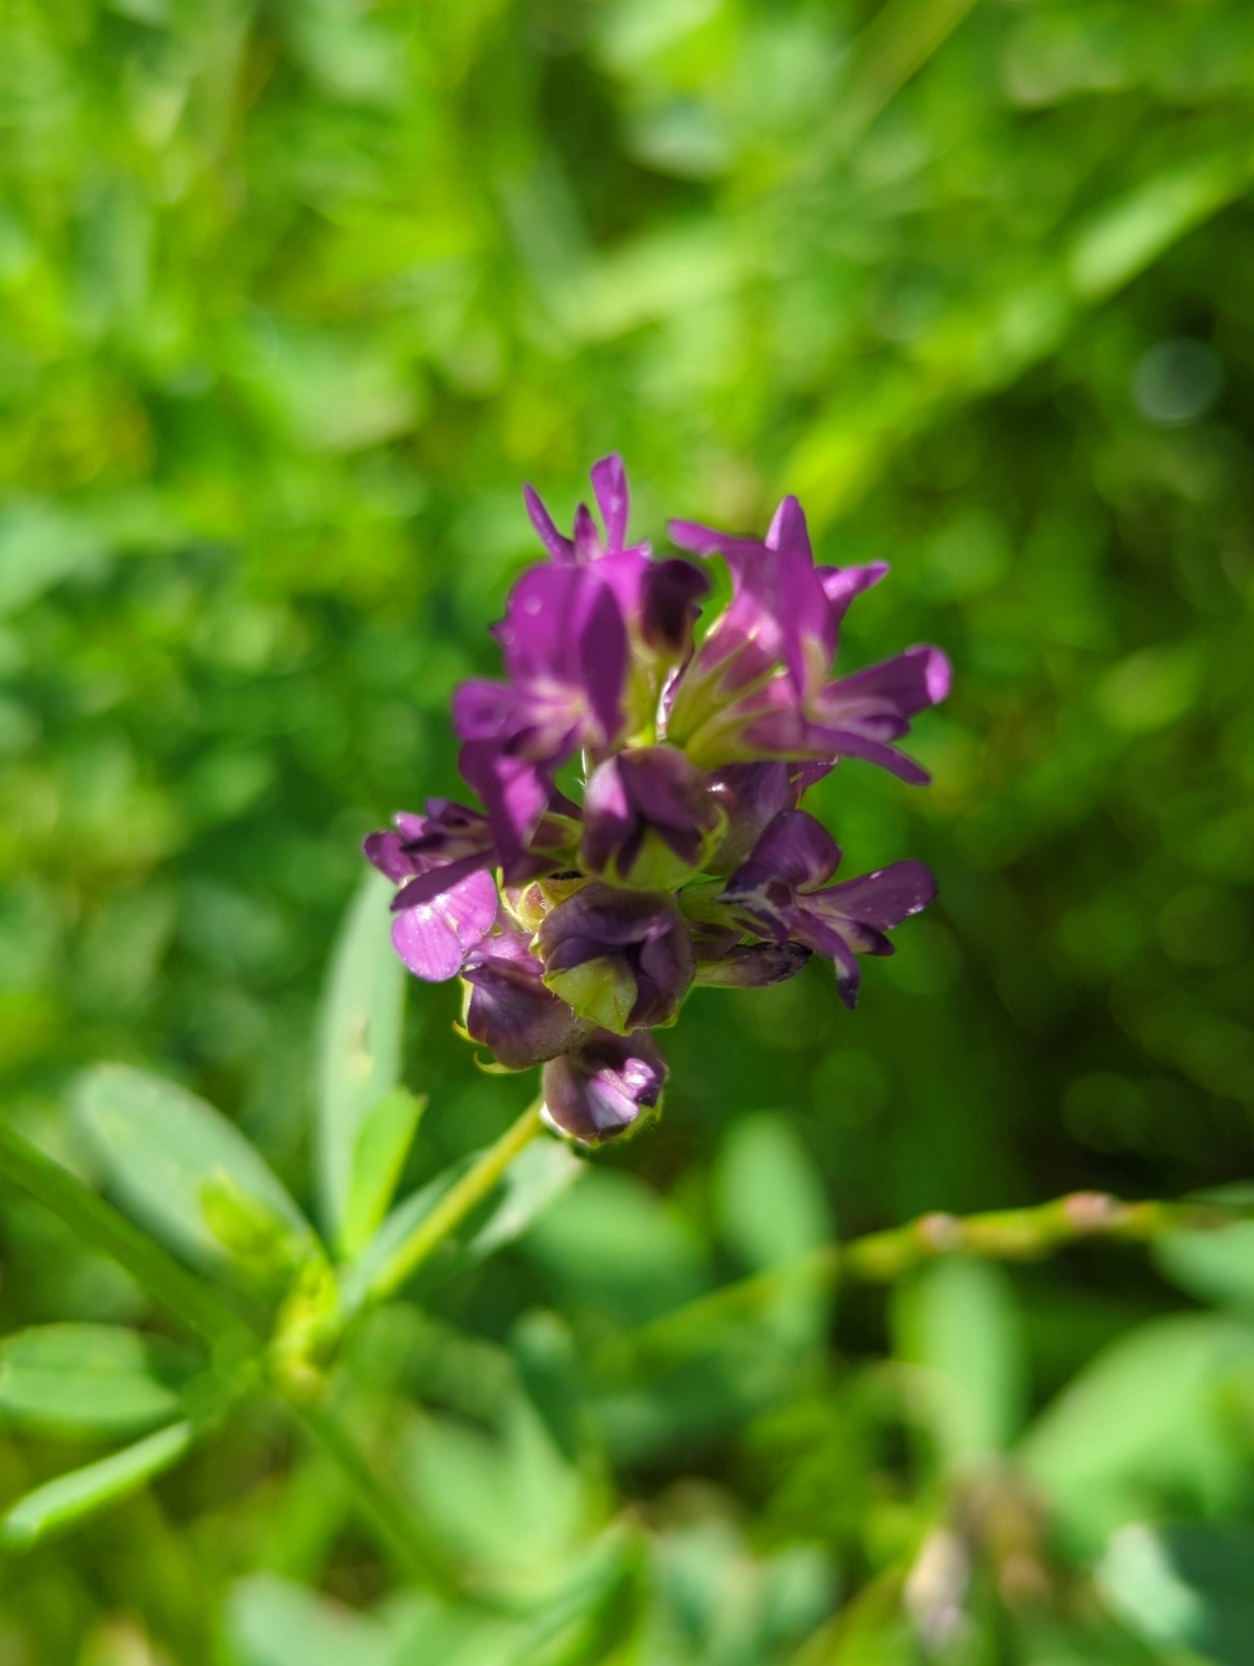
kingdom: Plantae
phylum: Tracheophyta
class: Magnoliopsida
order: Fabales
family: Fabaceae
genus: Medicago
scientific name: Medicago sativa
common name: Lucerne
